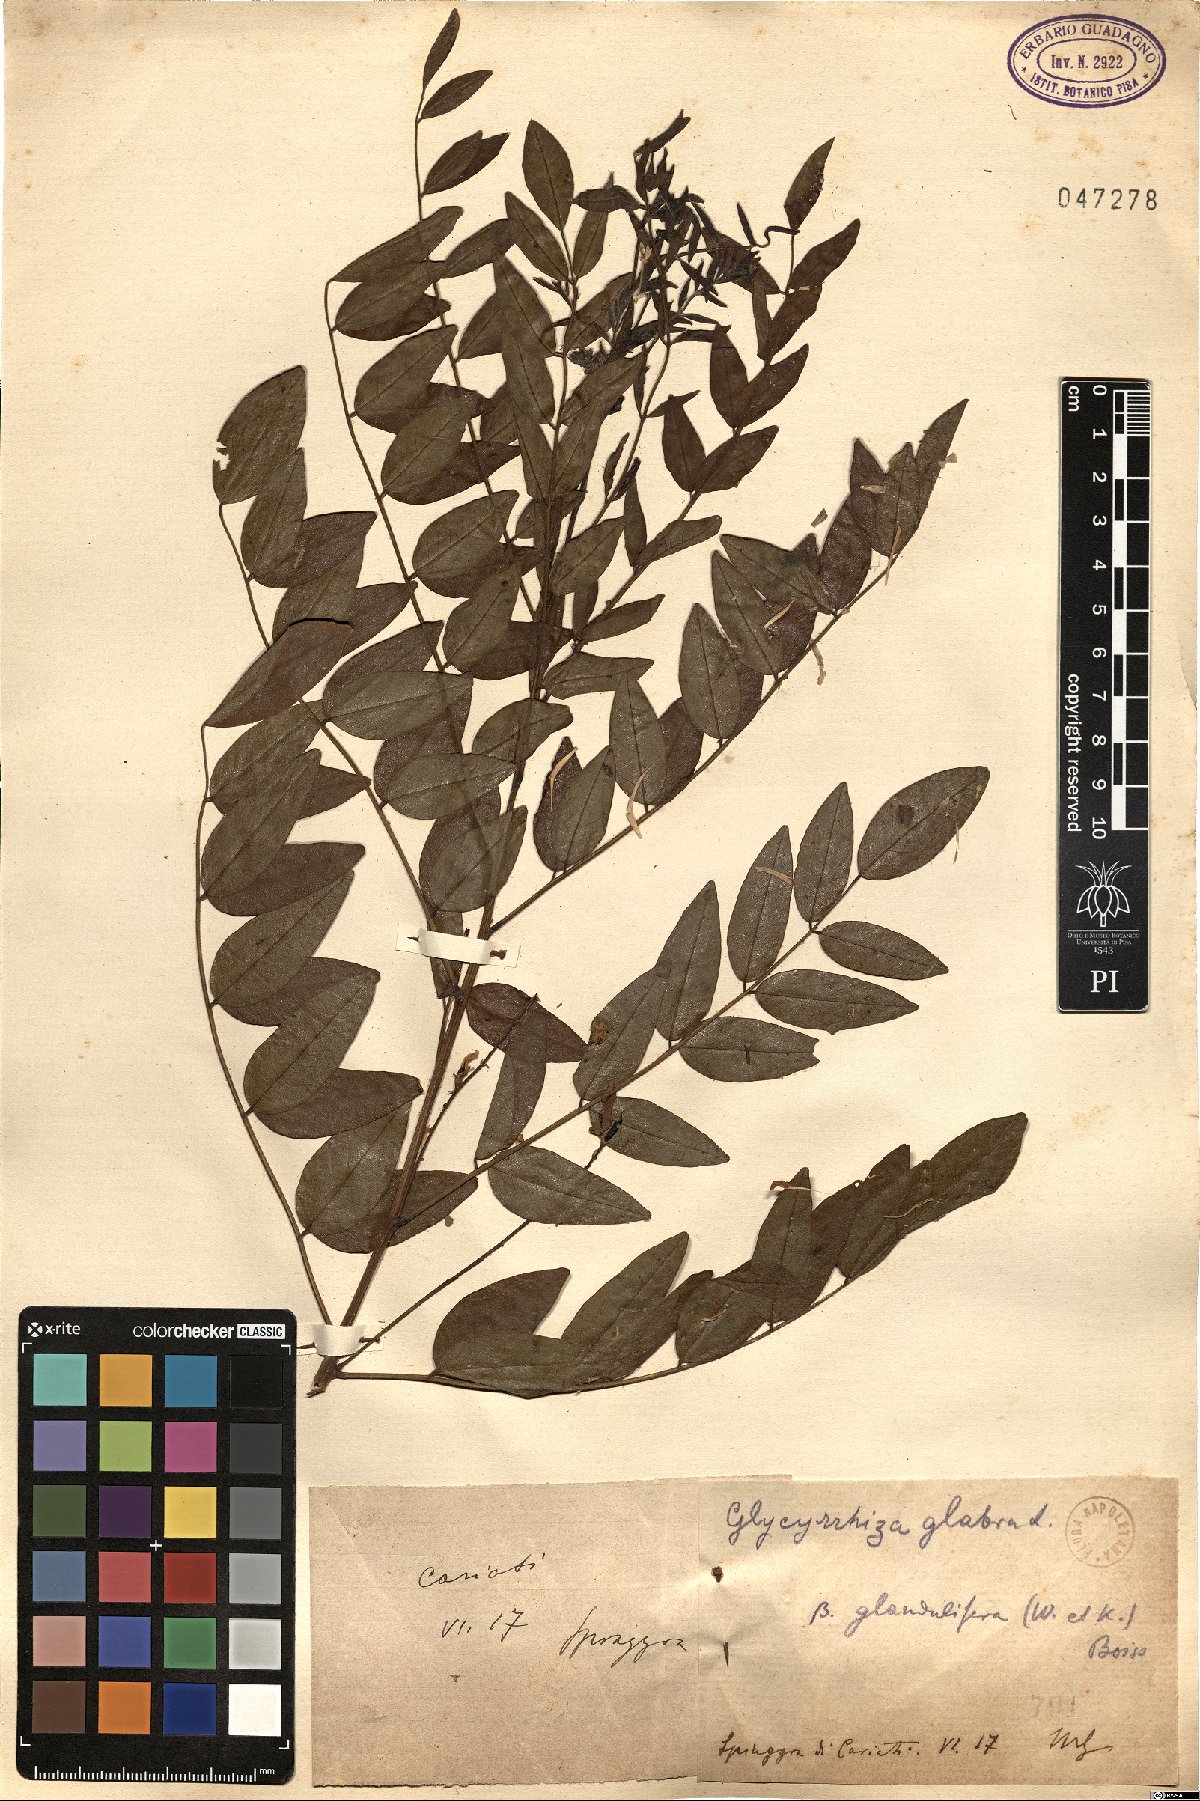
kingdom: Plantae
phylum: Tracheophyta
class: Magnoliopsida
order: Fabales
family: Fabaceae
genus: Glycyrrhiza
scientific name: Glycyrrhiza glabra
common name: Liquorice
